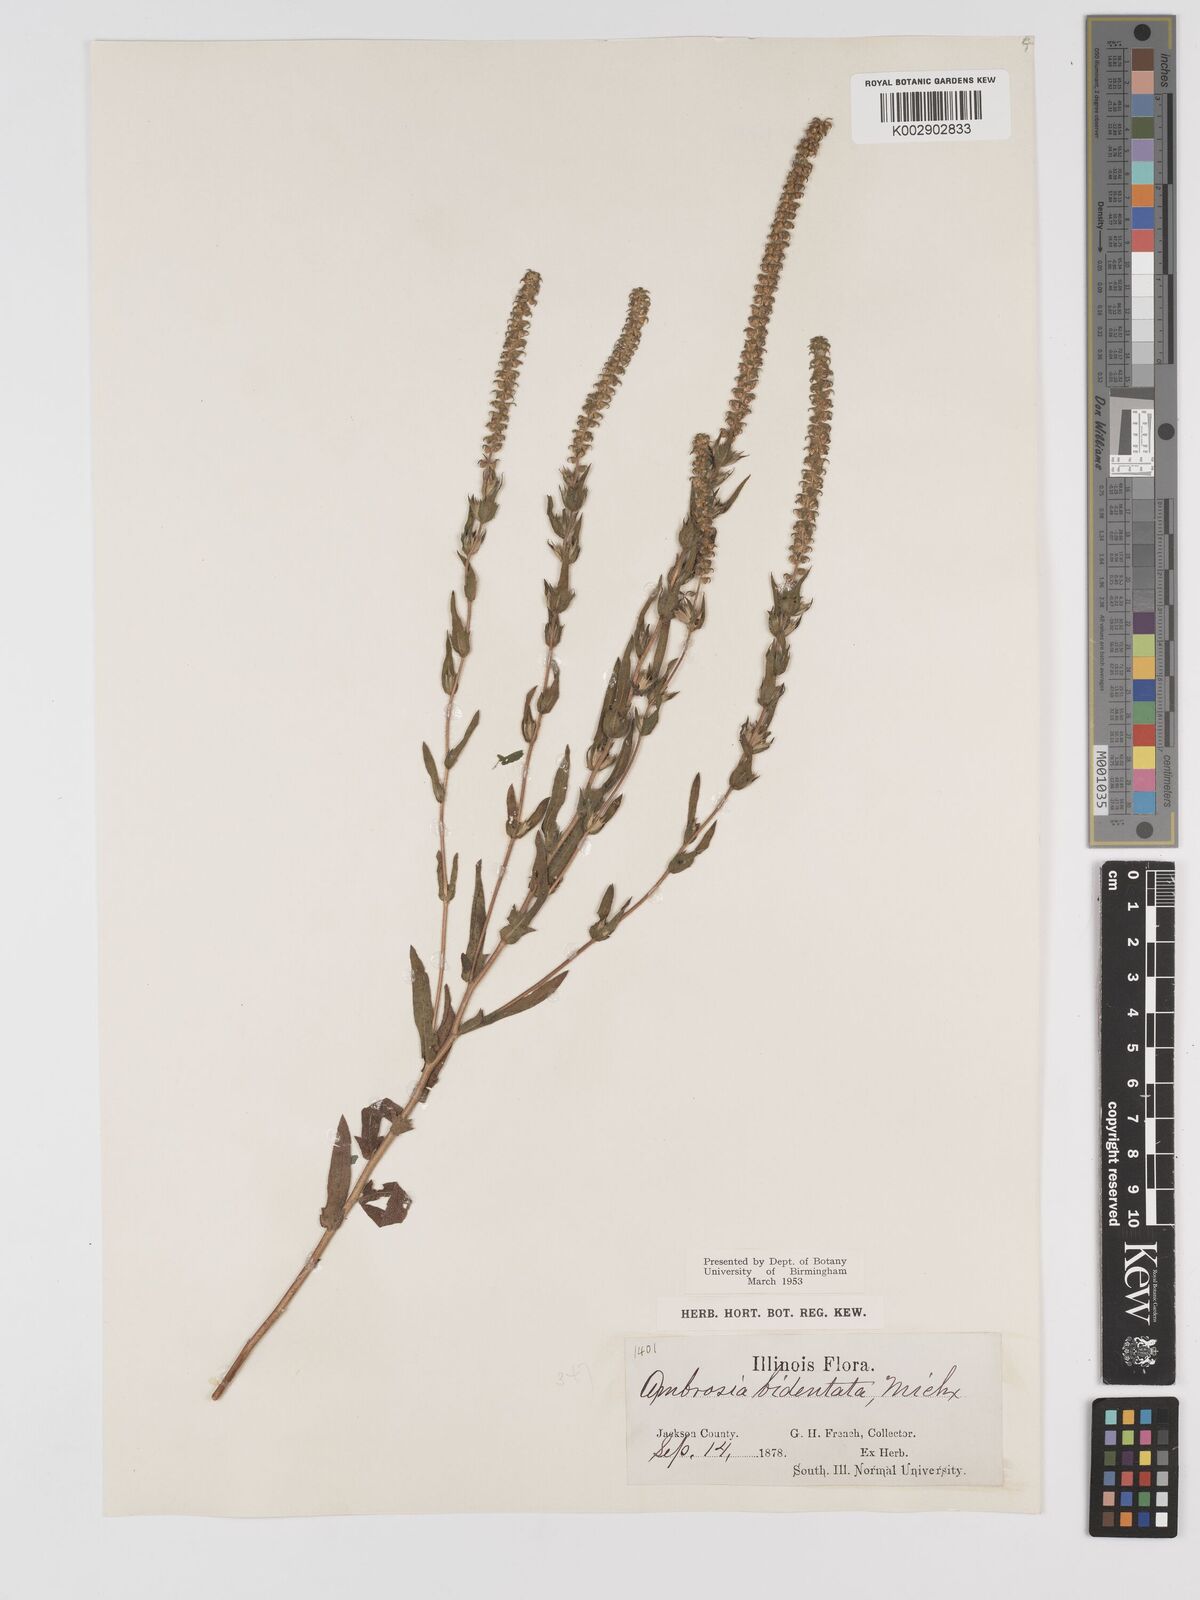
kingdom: Plantae
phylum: Tracheophyta
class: Magnoliopsida
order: Asterales
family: Asteraceae
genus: Ambrosia
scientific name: Ambrosia bidentata
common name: Southern ragweed
